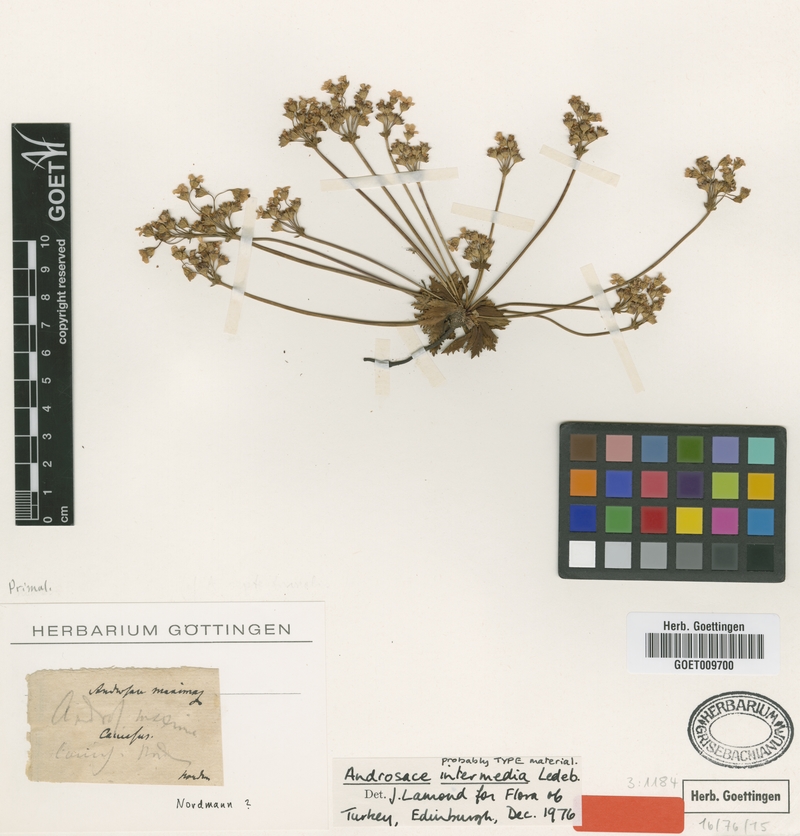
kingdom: Plantae
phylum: Tracheophyta
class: Magnoliopsida
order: Ericales
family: Primulaceae
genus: Androsace
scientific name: Androsace intermedia
